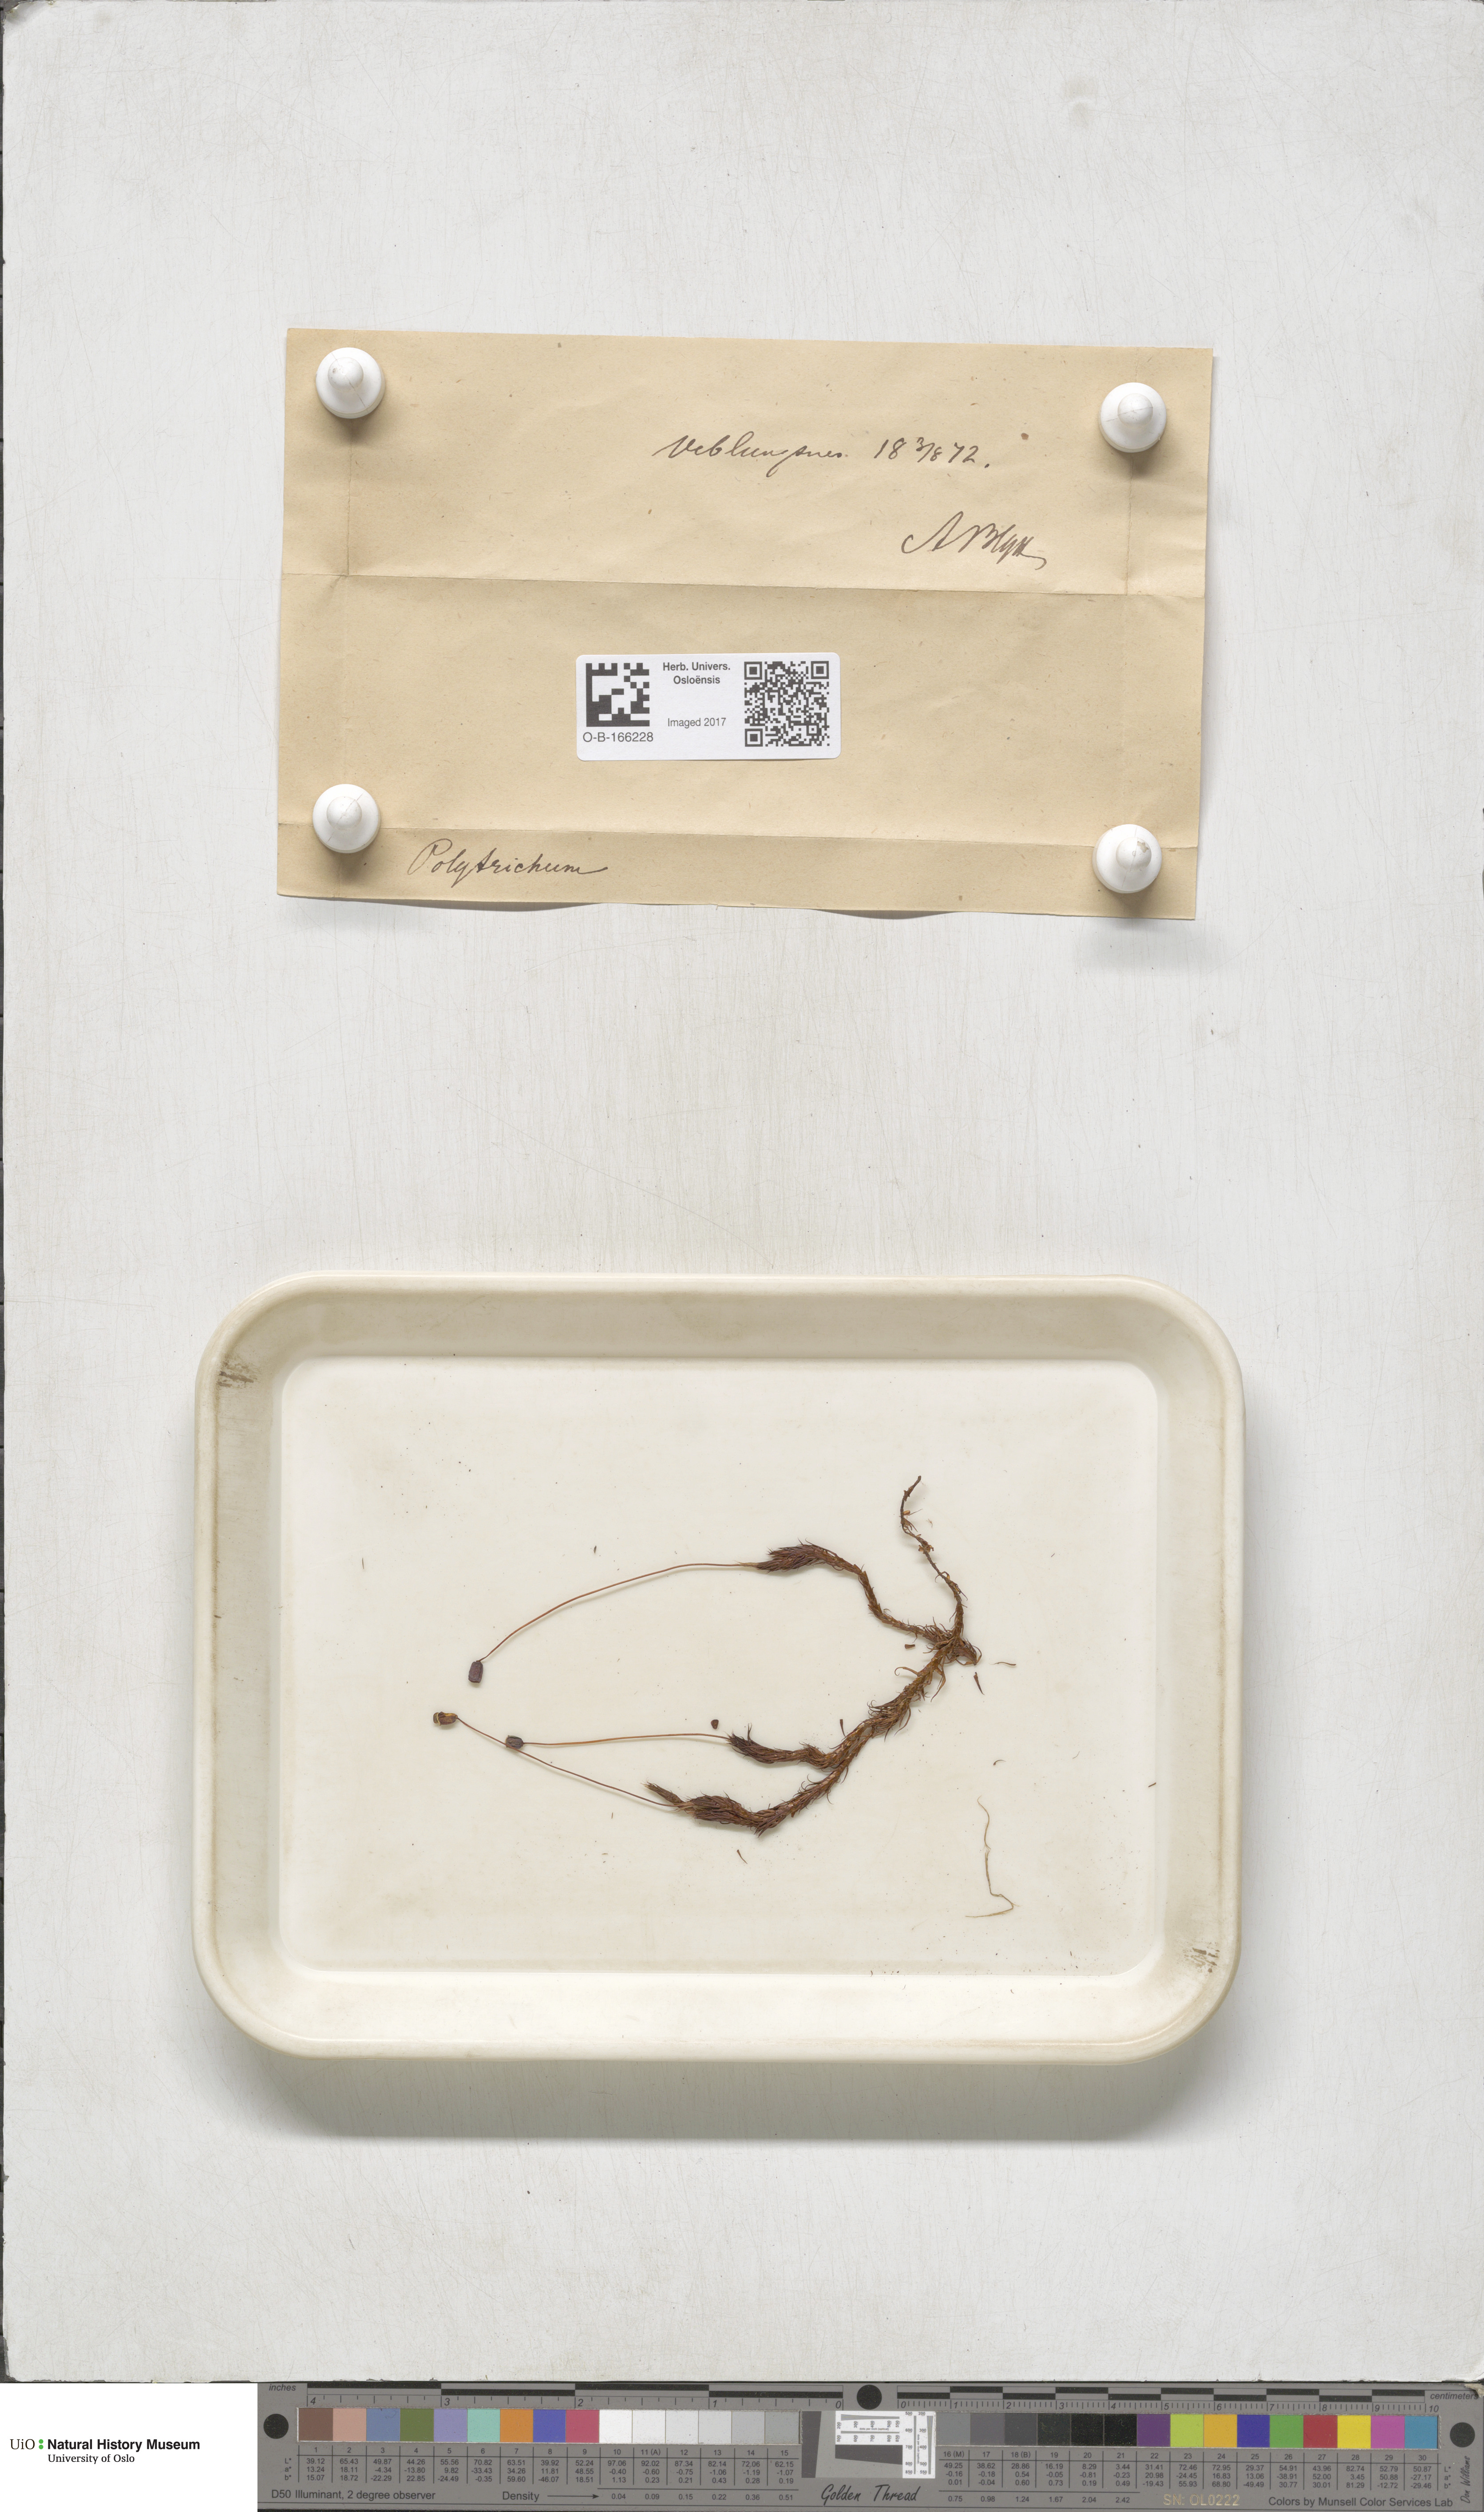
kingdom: Plantae
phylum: Bryophyta
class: Polytrichopsida
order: Polytrichales
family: Polytrichaceae
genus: Polytrichum
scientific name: Polytrichum
